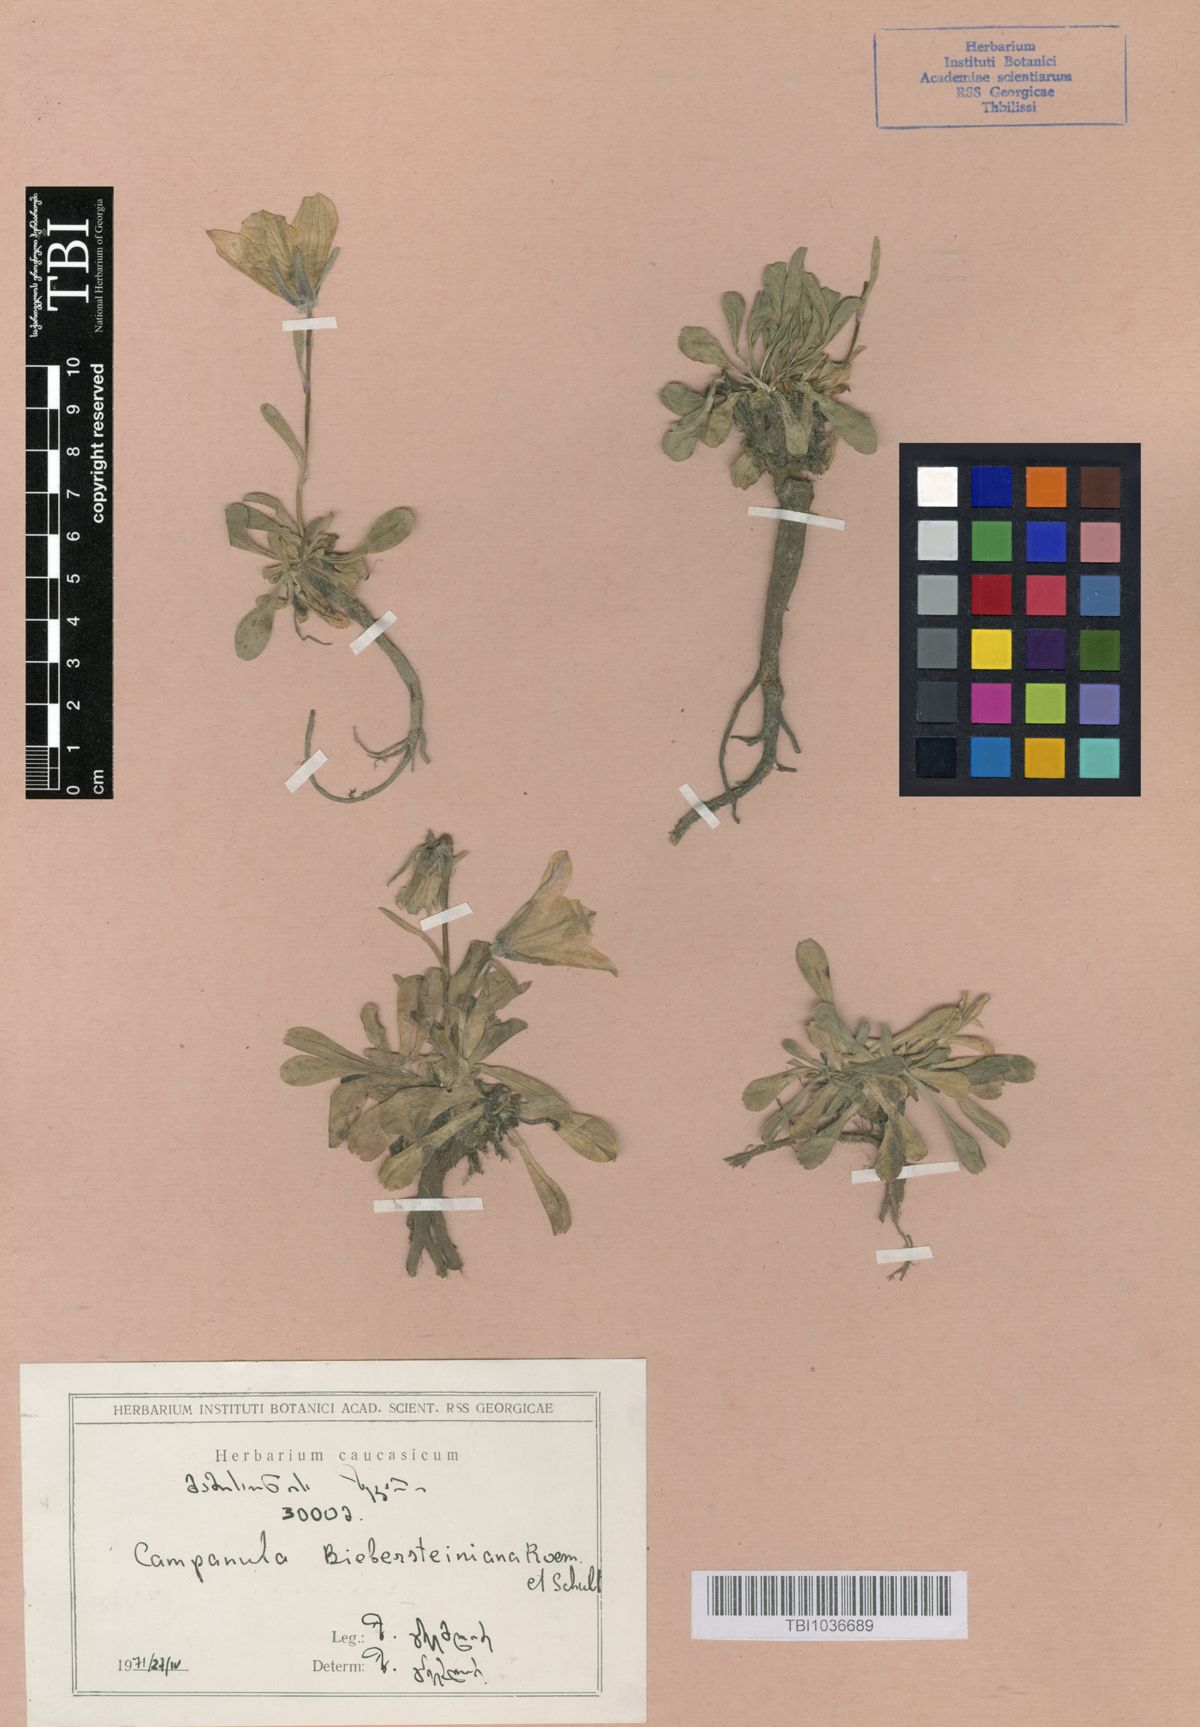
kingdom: Plantae
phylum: Tracheophyta
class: Magnoliopsida
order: Asterales
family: Campanulaceae
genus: Campanula
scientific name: Campanula tridentata
